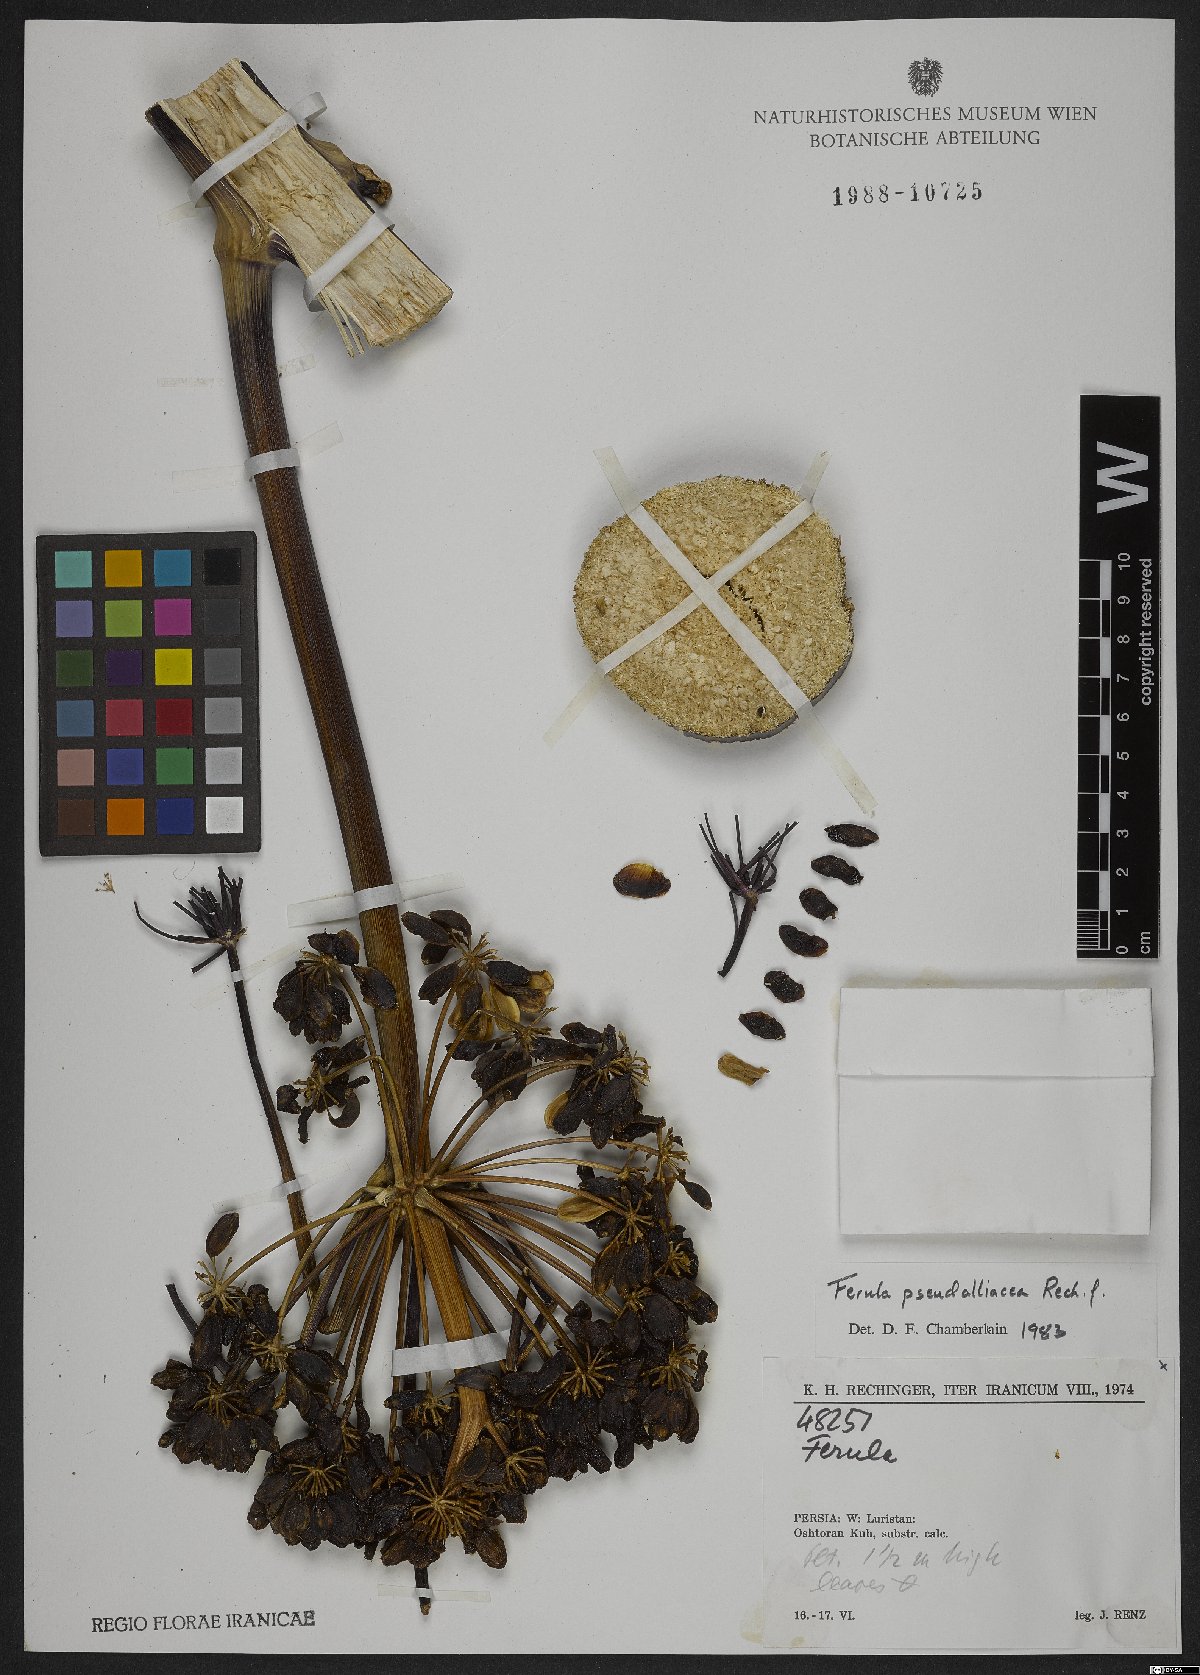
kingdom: Plantae
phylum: Tracheophyta
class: Magnoliopsida
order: Apiales
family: Apiaceae
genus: Ferula
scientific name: Ferula pseudalliacea
